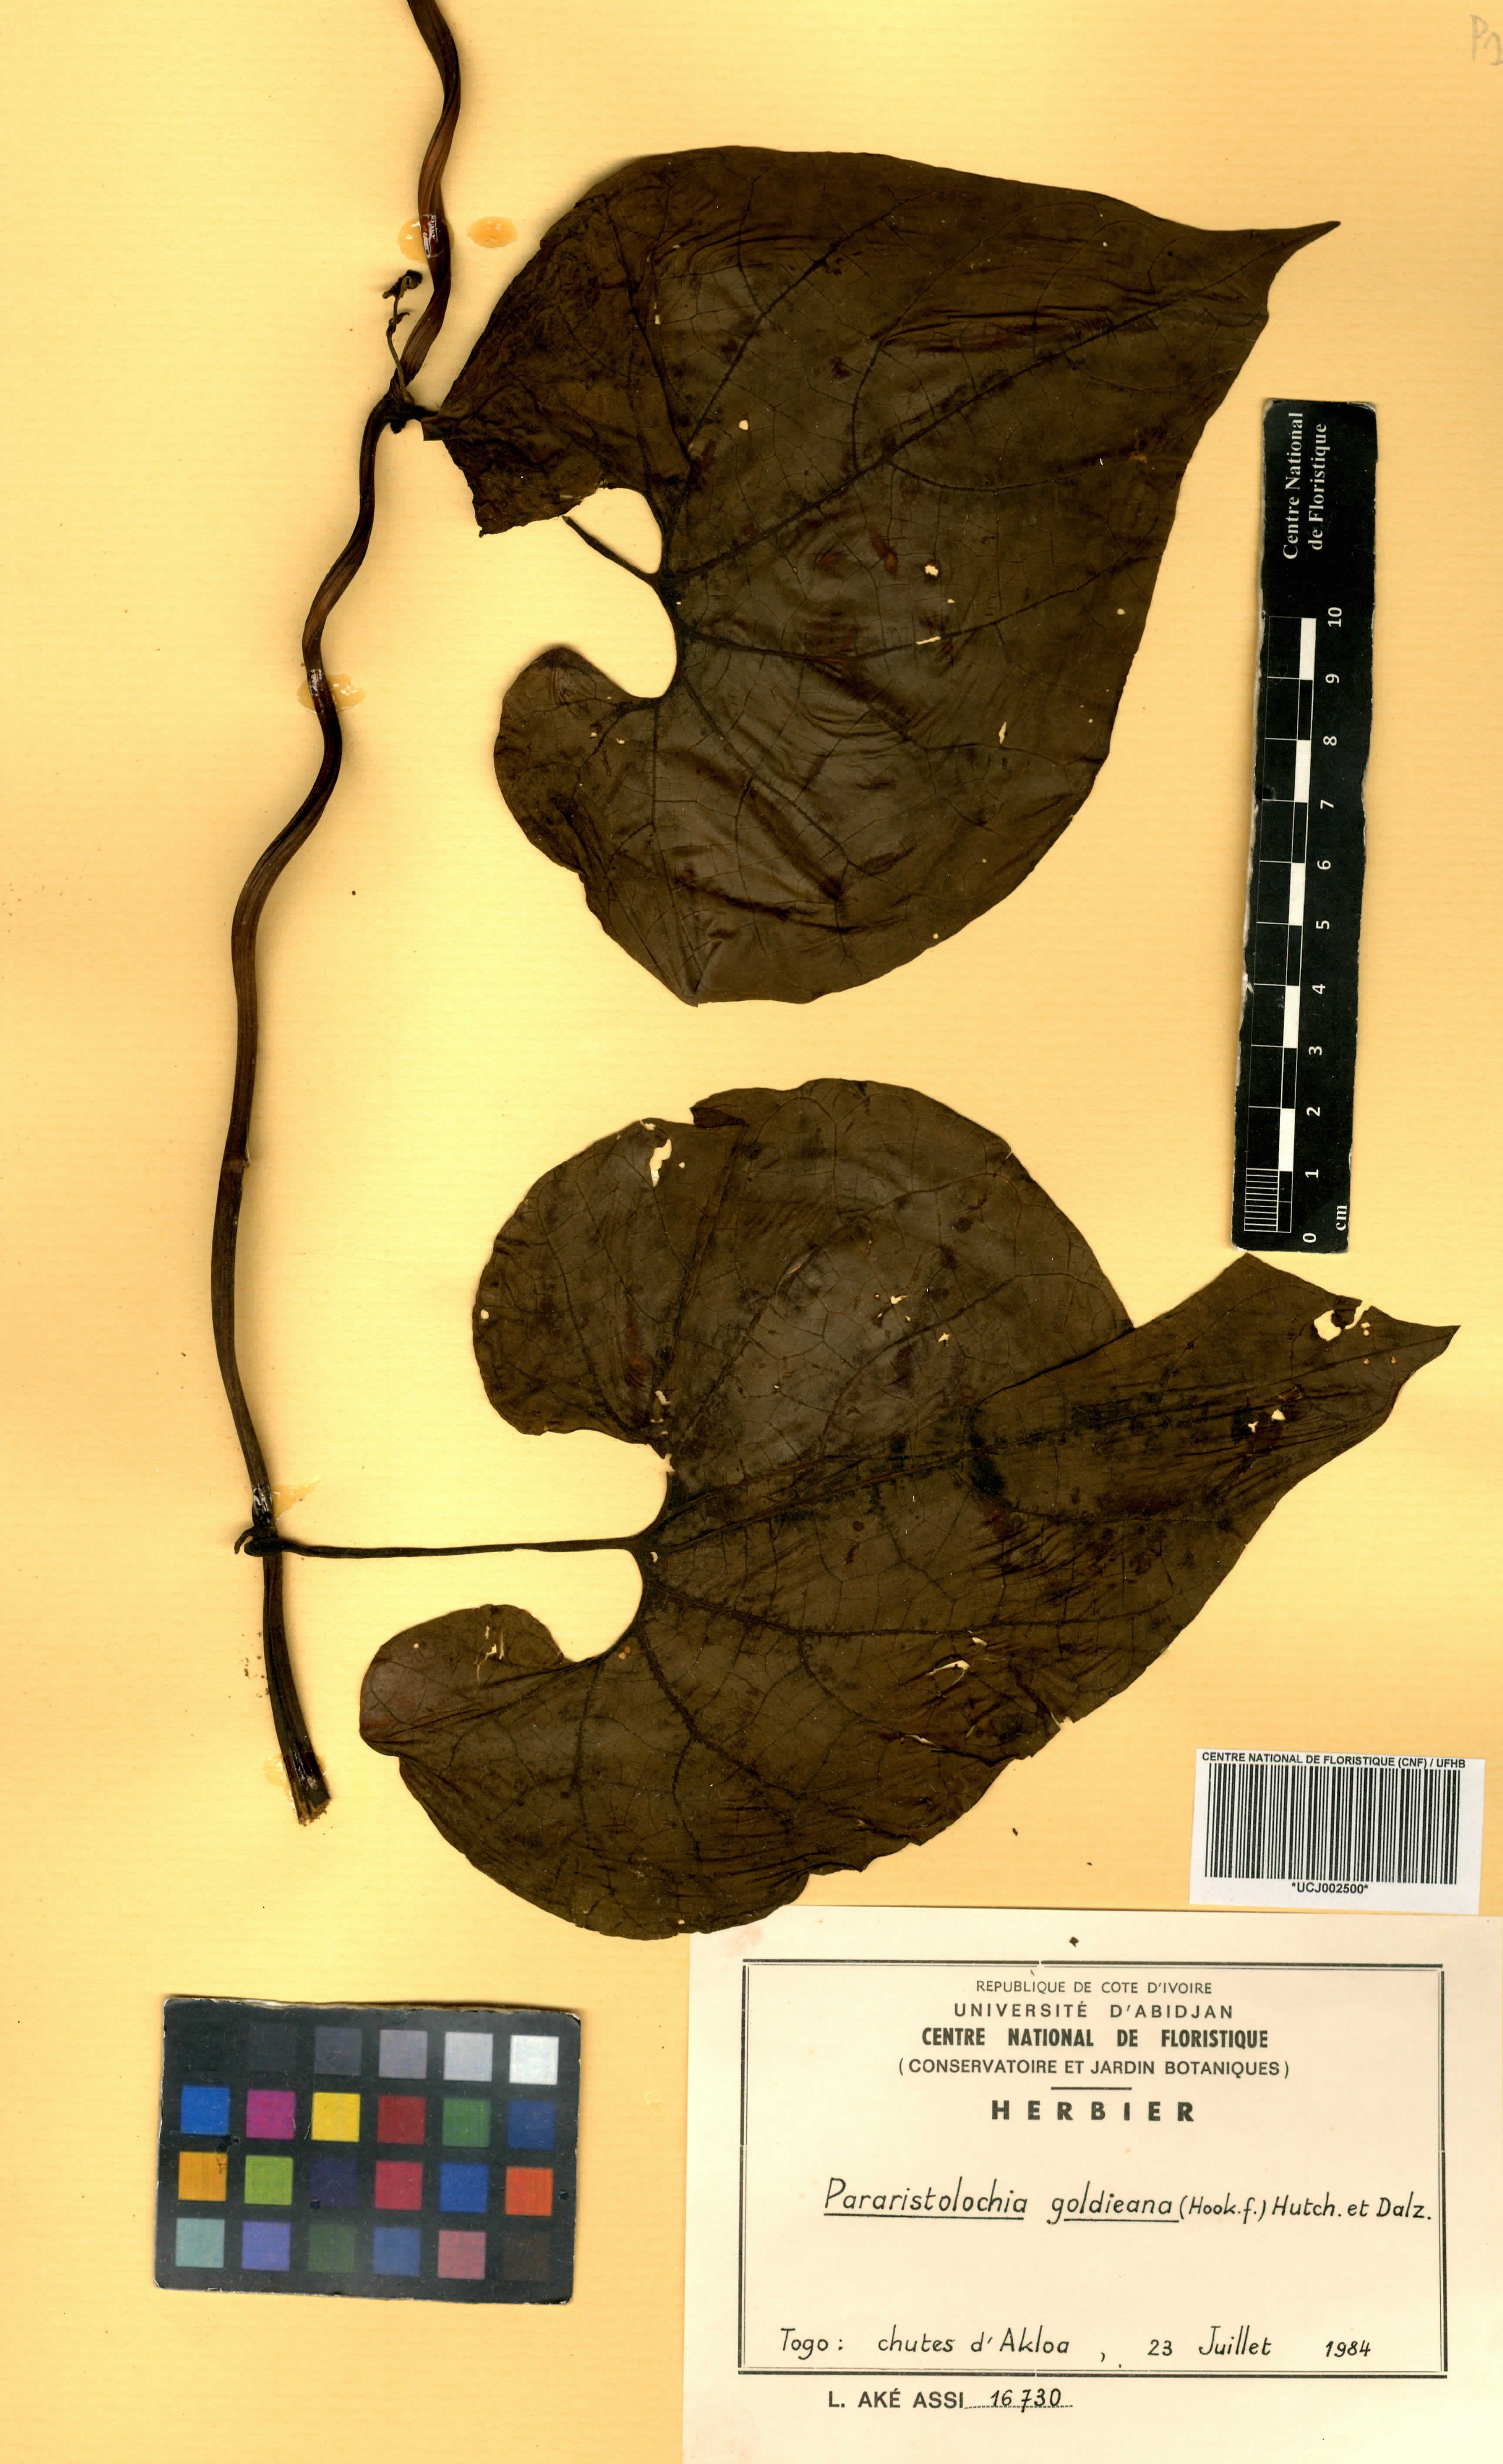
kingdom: Plantae
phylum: Tracheophyta
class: Magnoliopsida
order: Piperales
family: Aristolochiaceae
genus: Aristolochia
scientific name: Aristolochia goldieana
